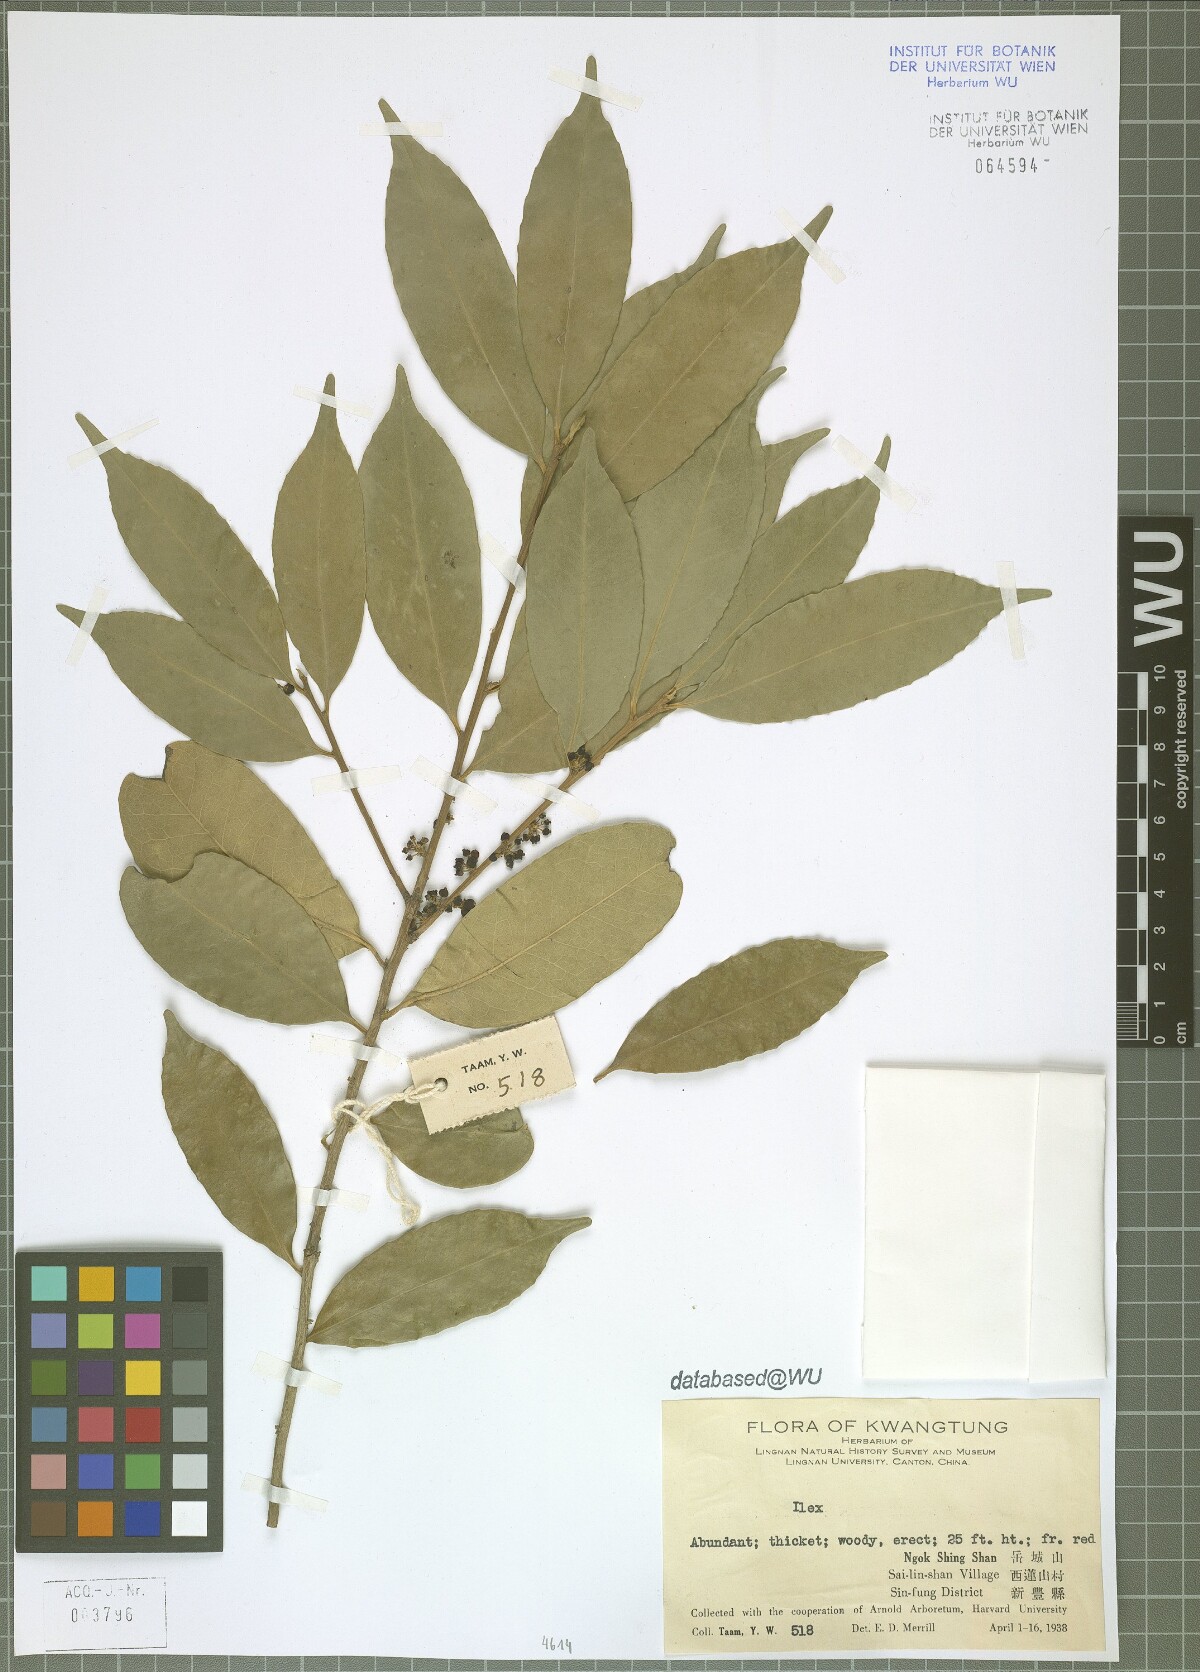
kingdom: Plantae
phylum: Tracheophyta
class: Magnoliopsida
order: Aquifoliales
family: Aquifoliaceae
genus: Ilex
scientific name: Ilex
